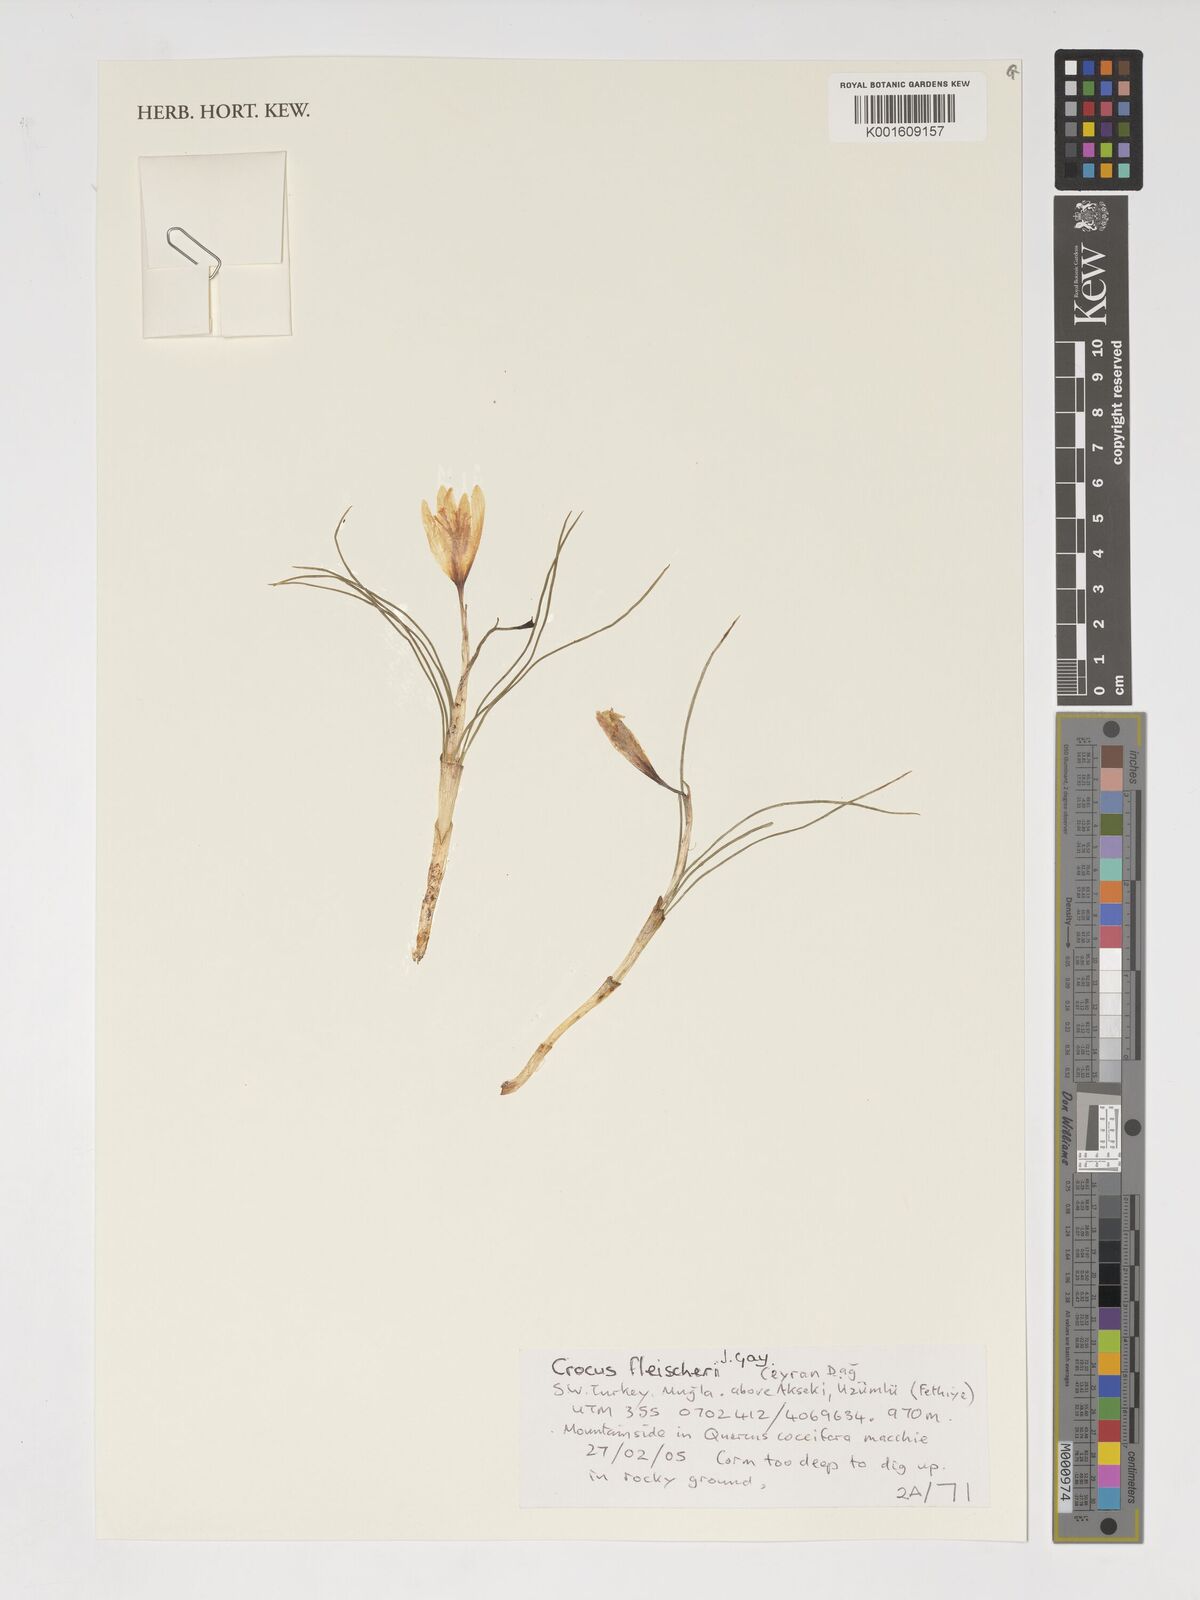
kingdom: Plantae
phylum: Tracheophyta
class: Liliopsida
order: Asparagales
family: Iridaceae
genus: Crocus
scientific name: Crocus fleischeri
